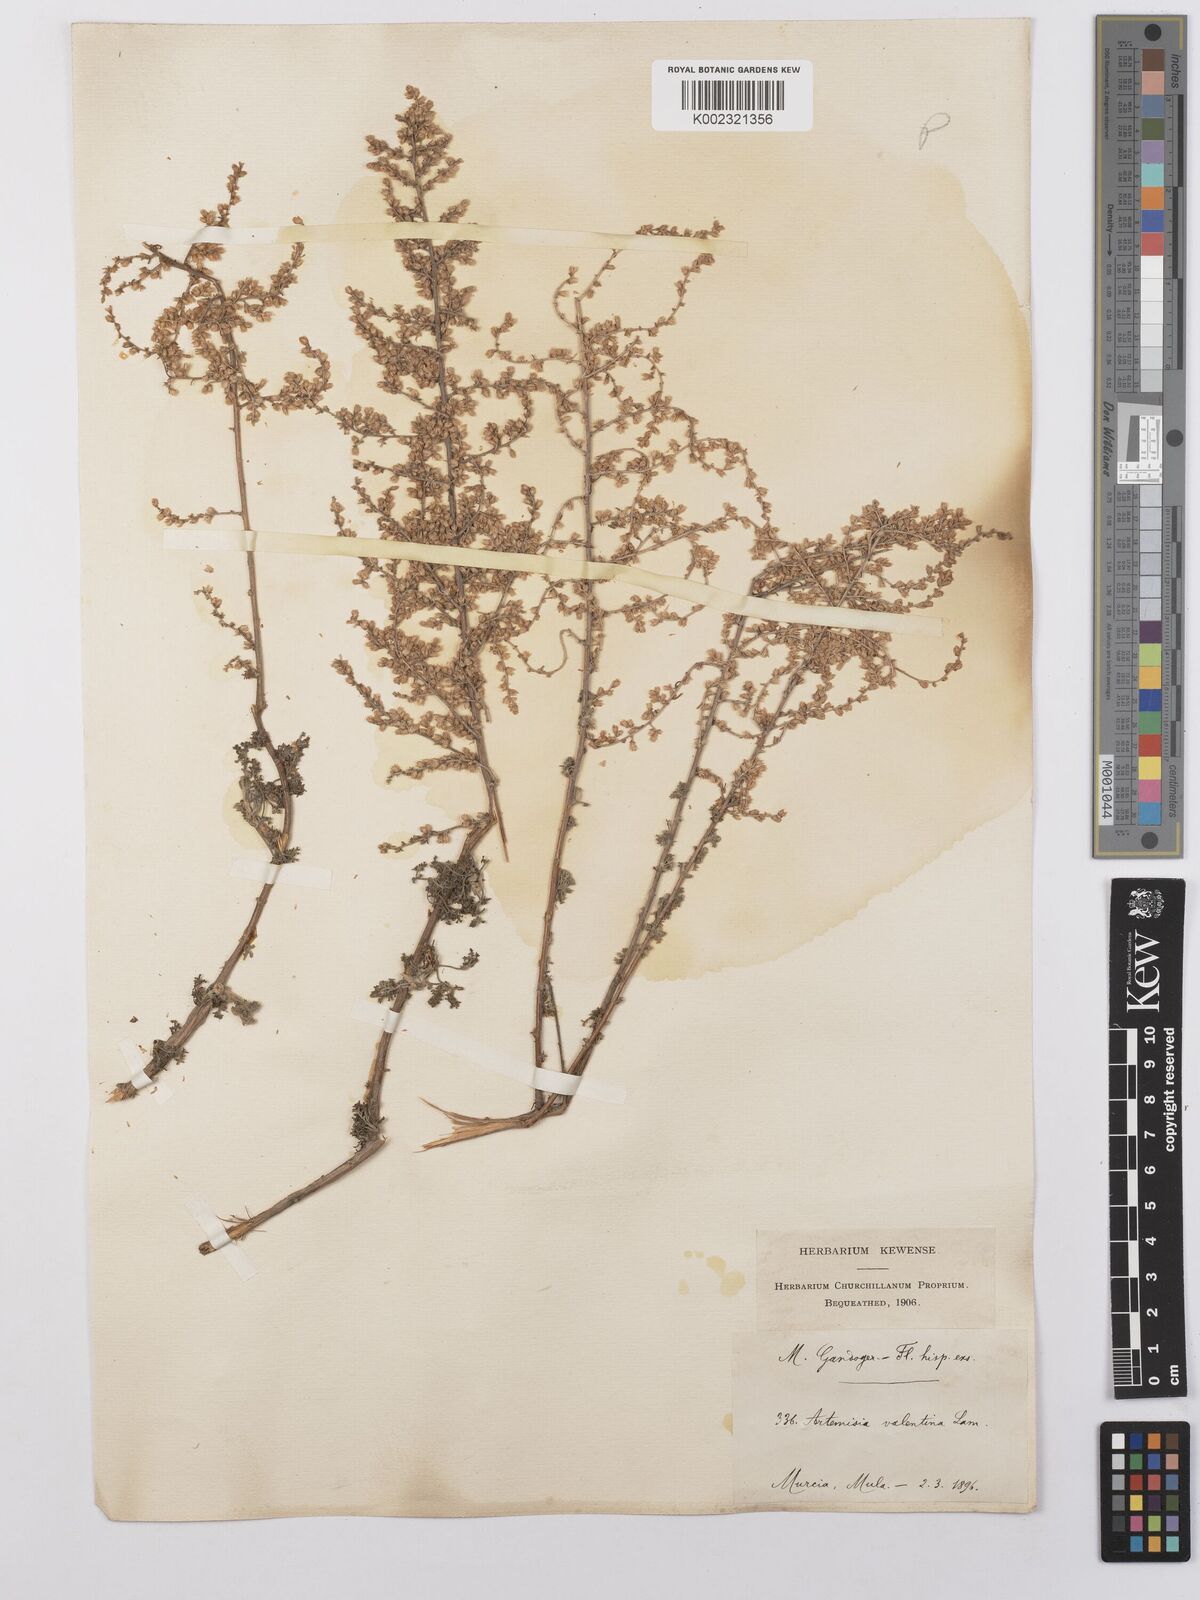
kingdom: Plantae
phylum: Tracheophyta
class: Magnoliopsida
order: Asterales
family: Asteraceae
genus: Artemisia
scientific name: Artemisia herba-alba
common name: White wormwood
